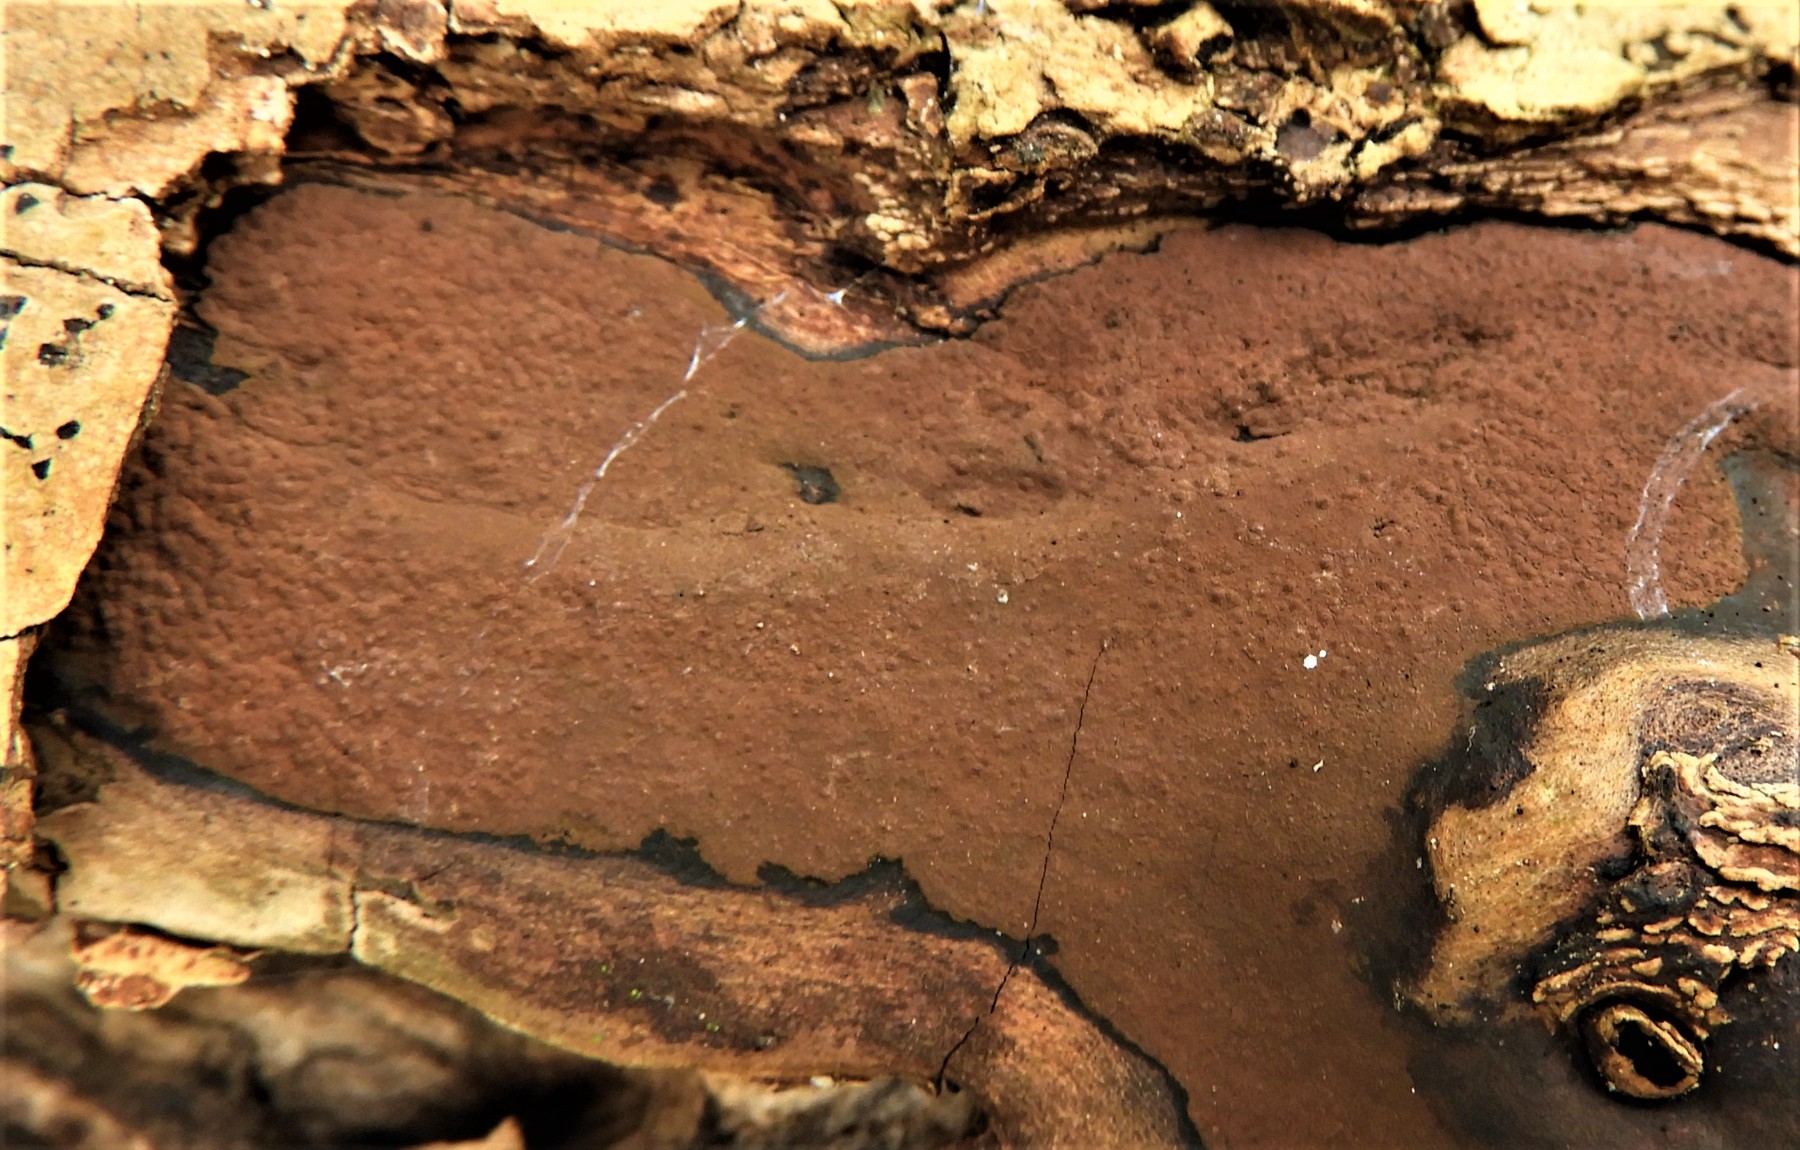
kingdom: Fungi
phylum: Ascomycota
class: Sordariomycetes
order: Xylariales
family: Hypoxylaceae
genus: Hypoxylon
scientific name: Hypoxylon petriniae
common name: nedsænket kulbær
